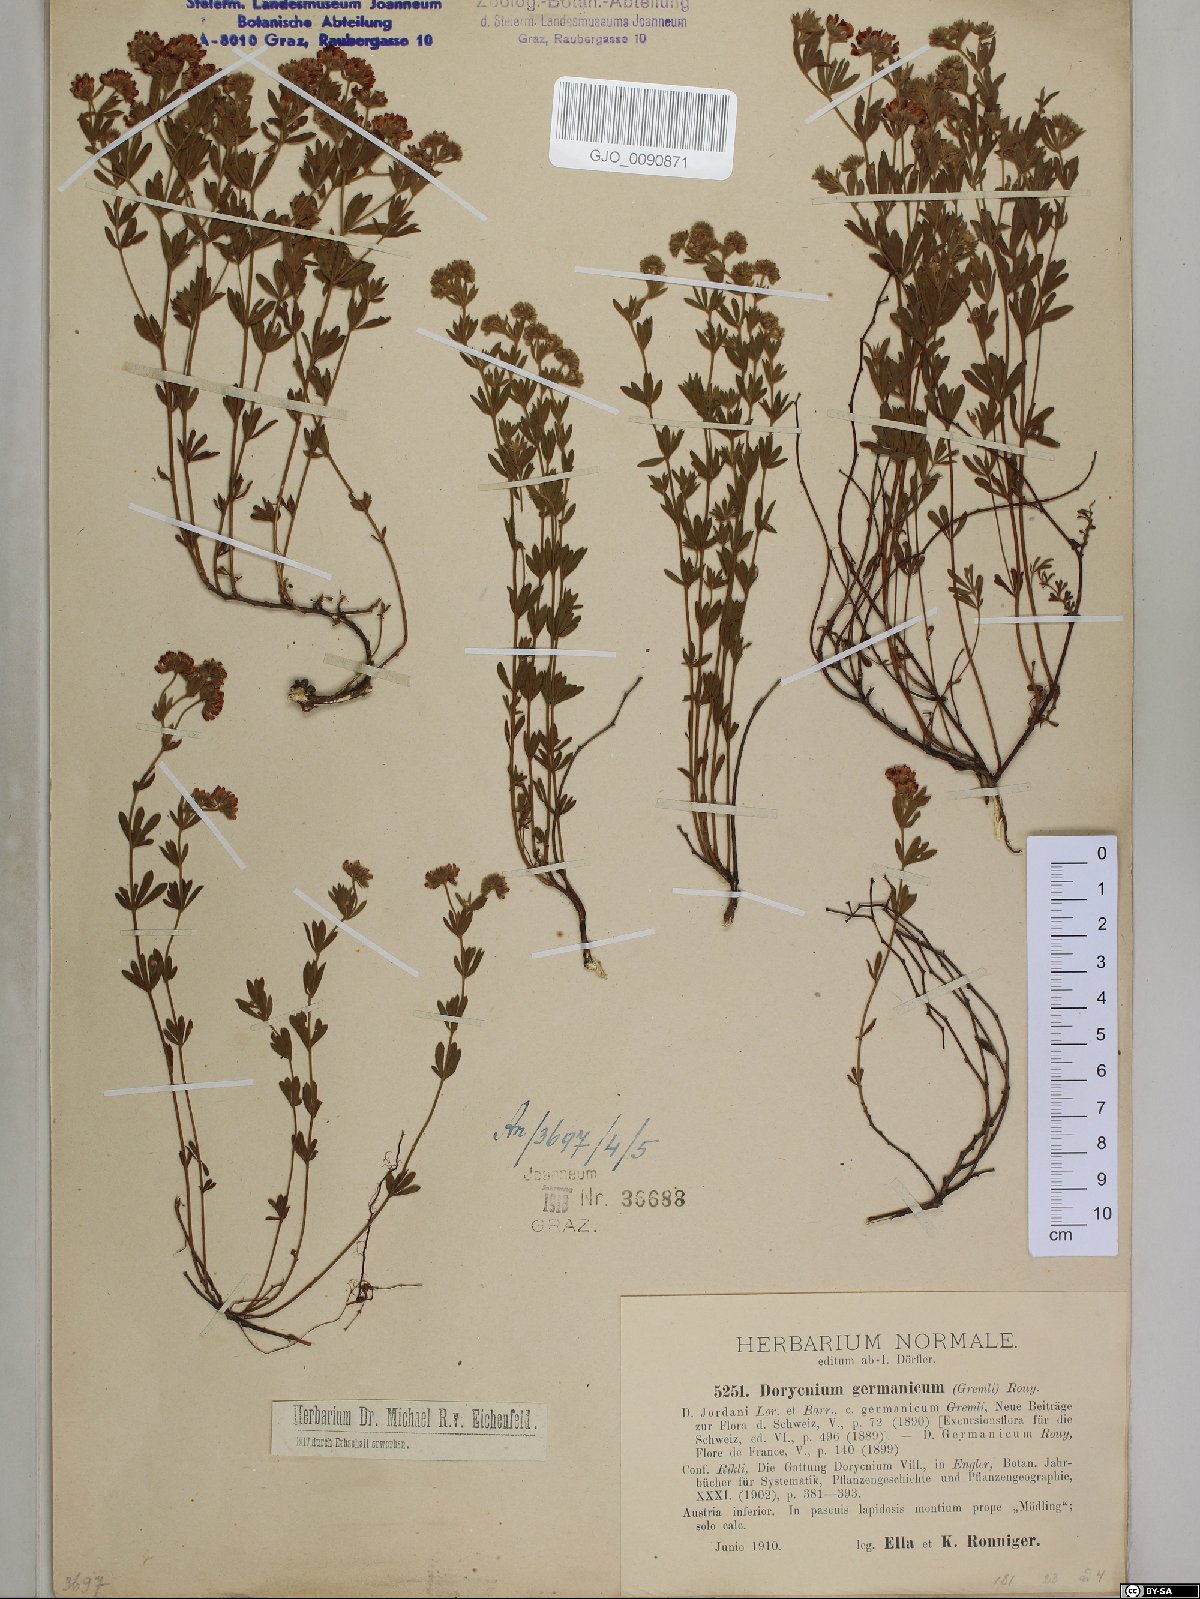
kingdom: Plantae
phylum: Tracheophyta
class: Magnoliopsida
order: Fabales
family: Fabaceae
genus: Lotus
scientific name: Lotus germanicus
